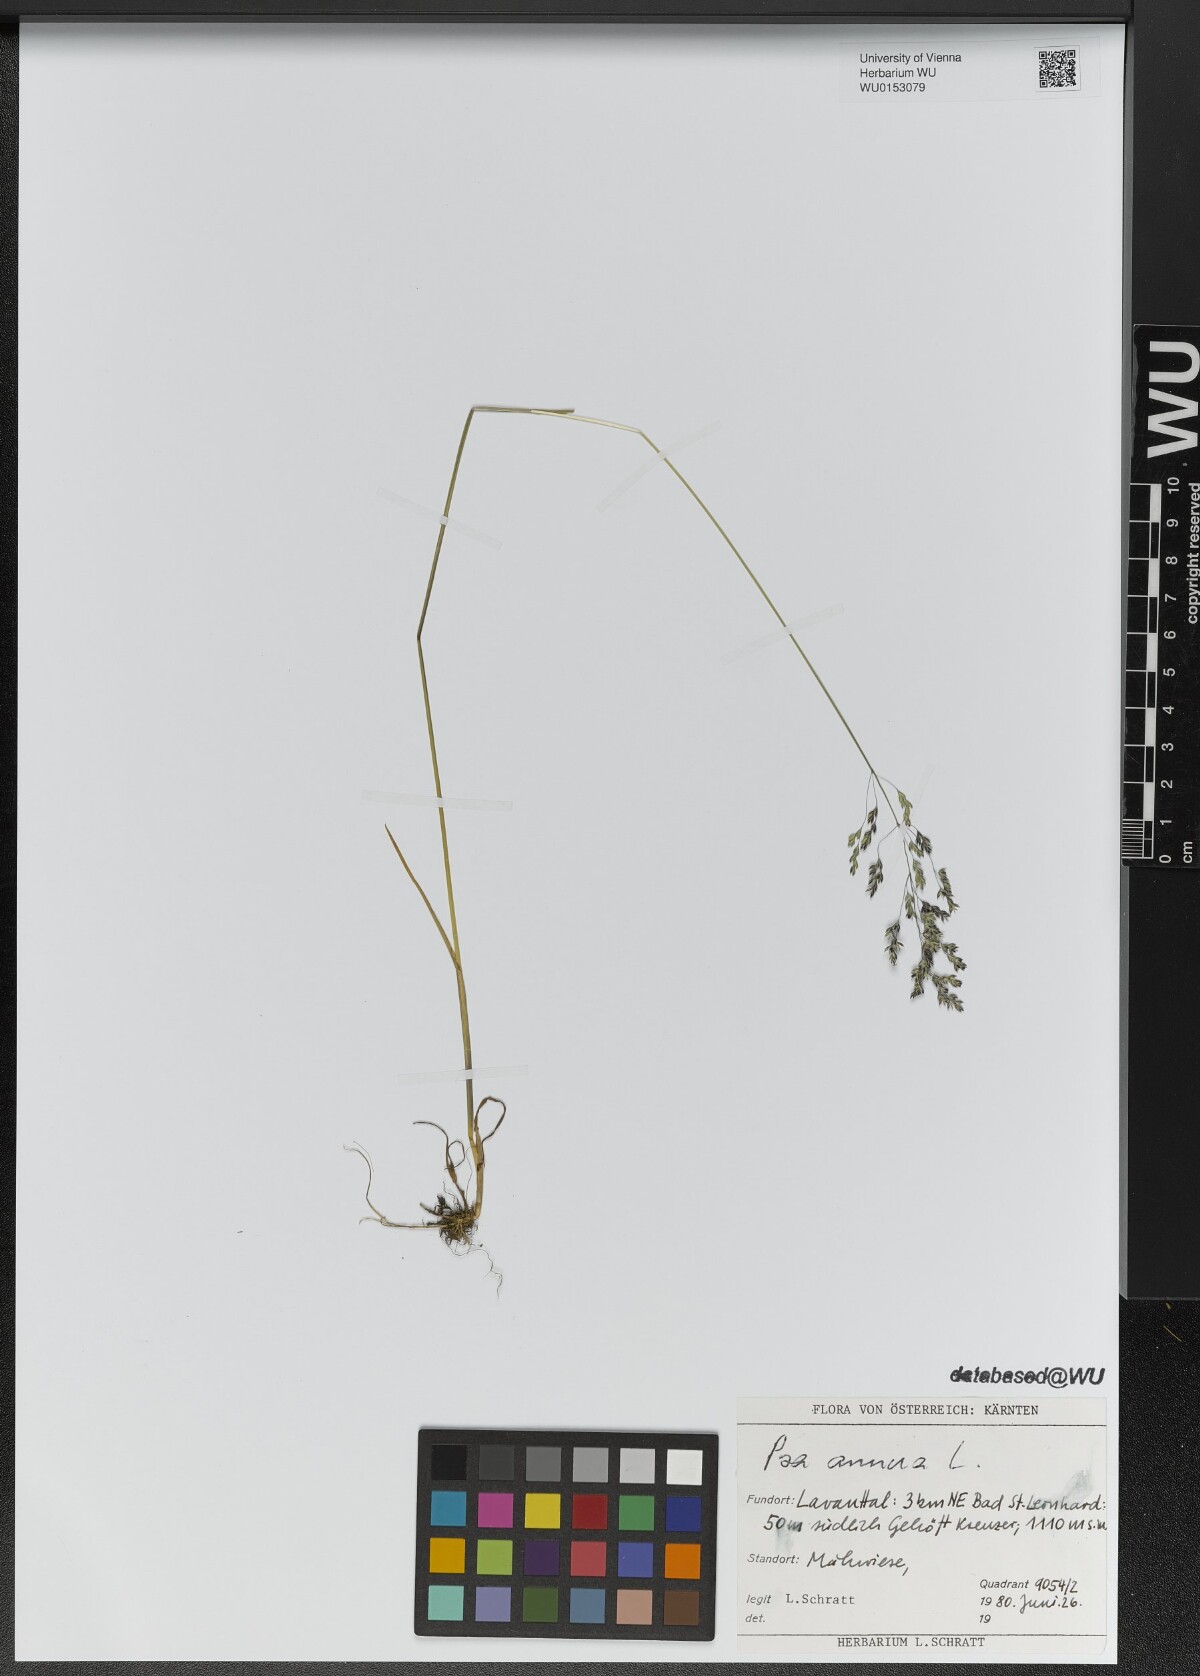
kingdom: Plantae
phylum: Tracheophyta
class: Liliopsida
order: Poales
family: Poaceae
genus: Poa
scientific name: Poa annua
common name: Annual bluegrass
